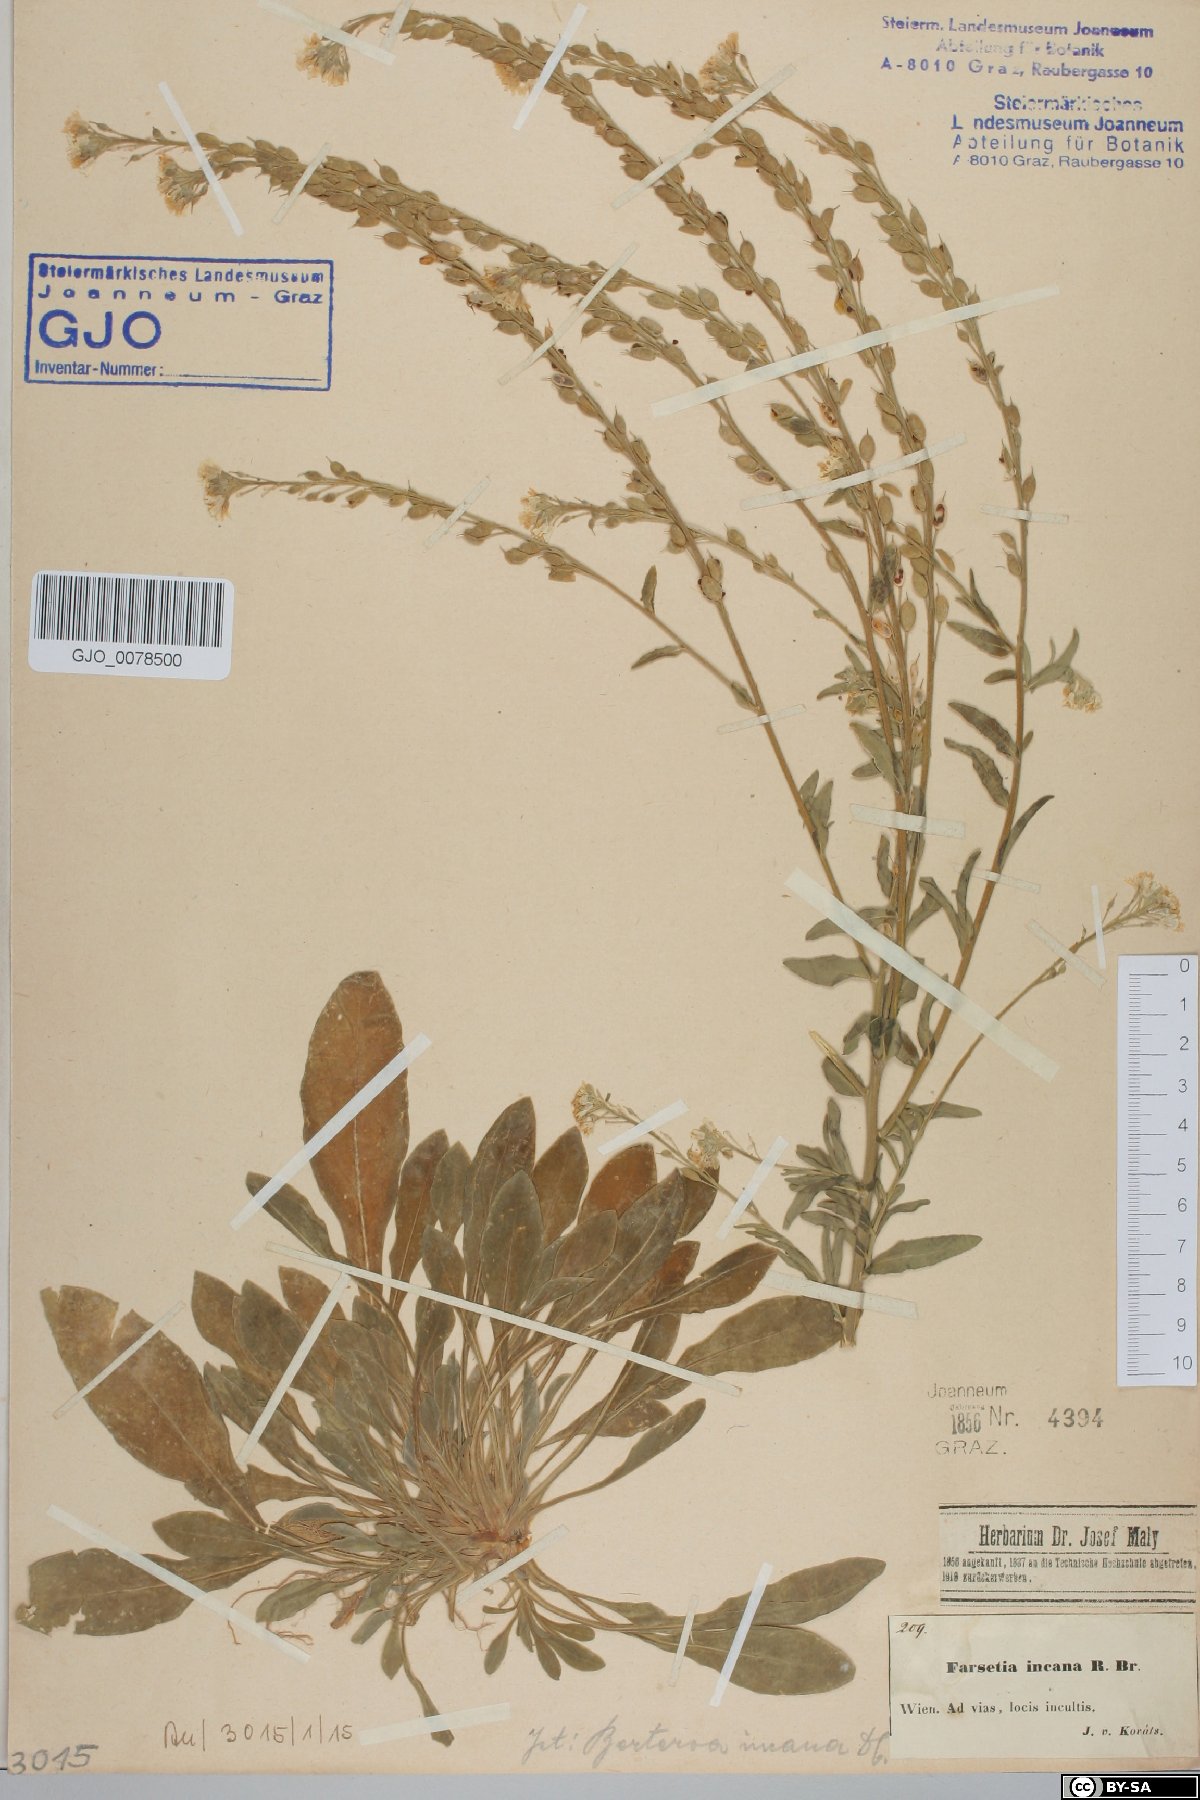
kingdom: Plantae
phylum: Tracheophyta
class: Magnoliopsida
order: Brassicales
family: Brassicaceae
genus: Berteroa
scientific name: Berteroa incana
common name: Hoary alison
